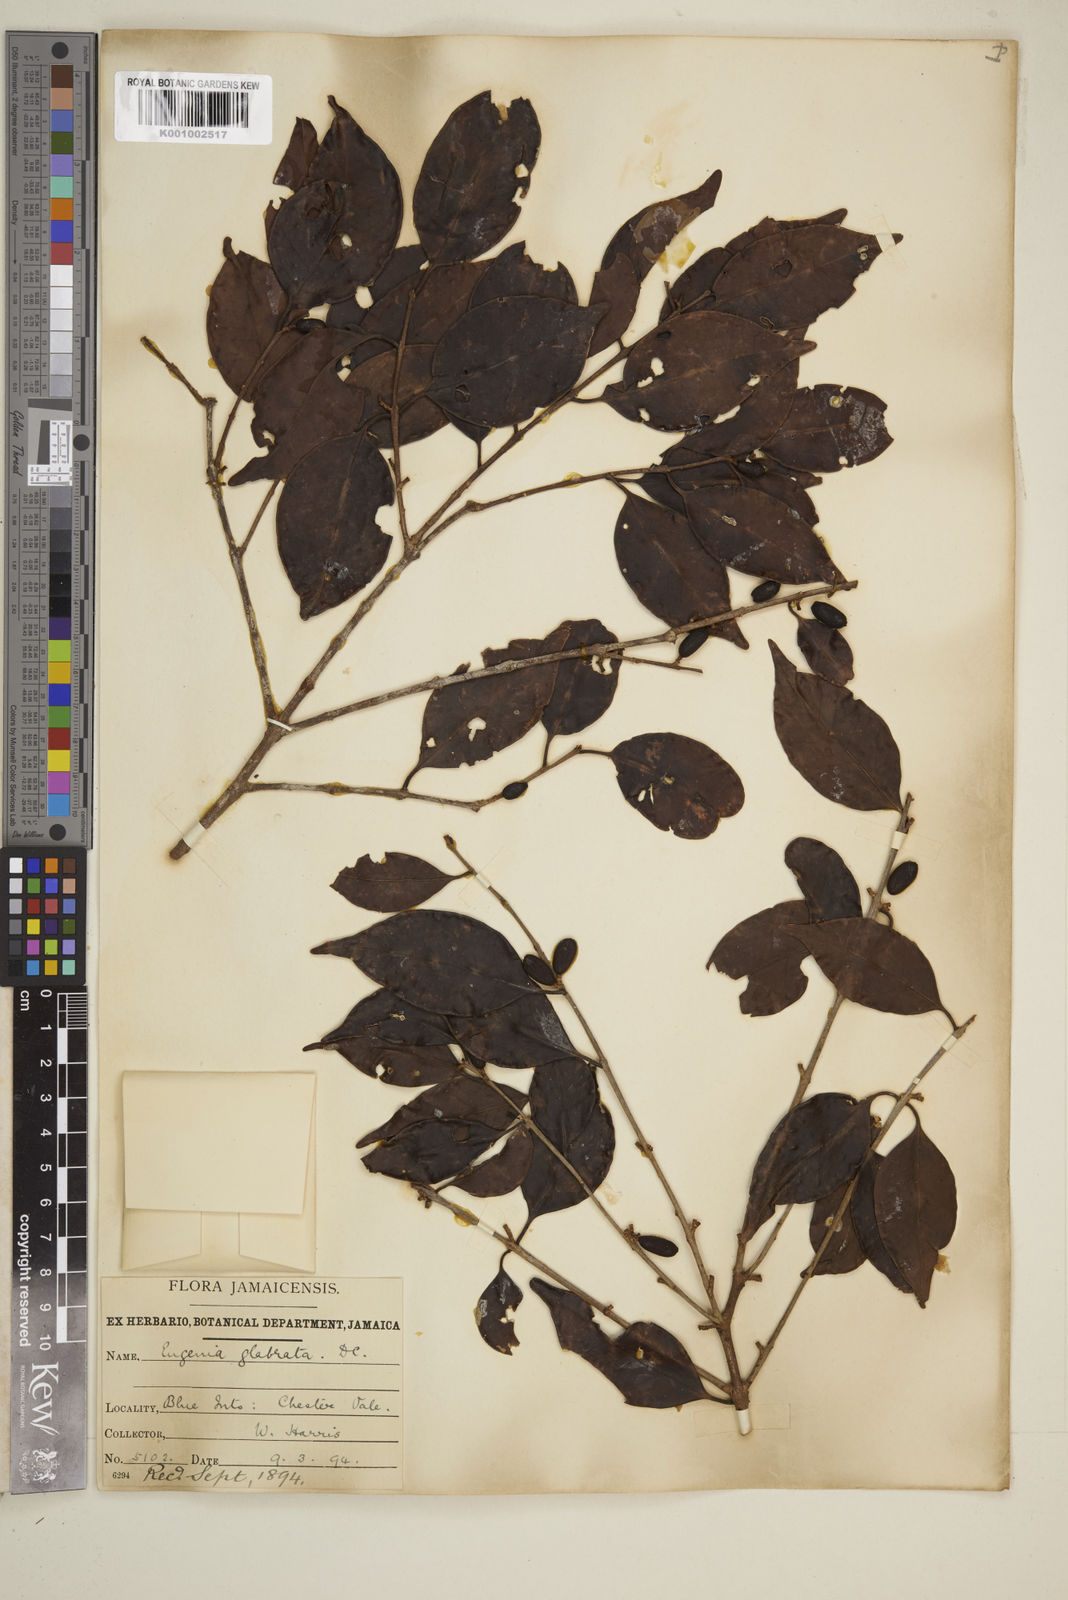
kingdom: Plantae
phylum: Tracheophyta
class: Magnoliopsida
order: Myrtales
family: Myrtaceae
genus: Eugenia
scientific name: Eugenia glabrata
